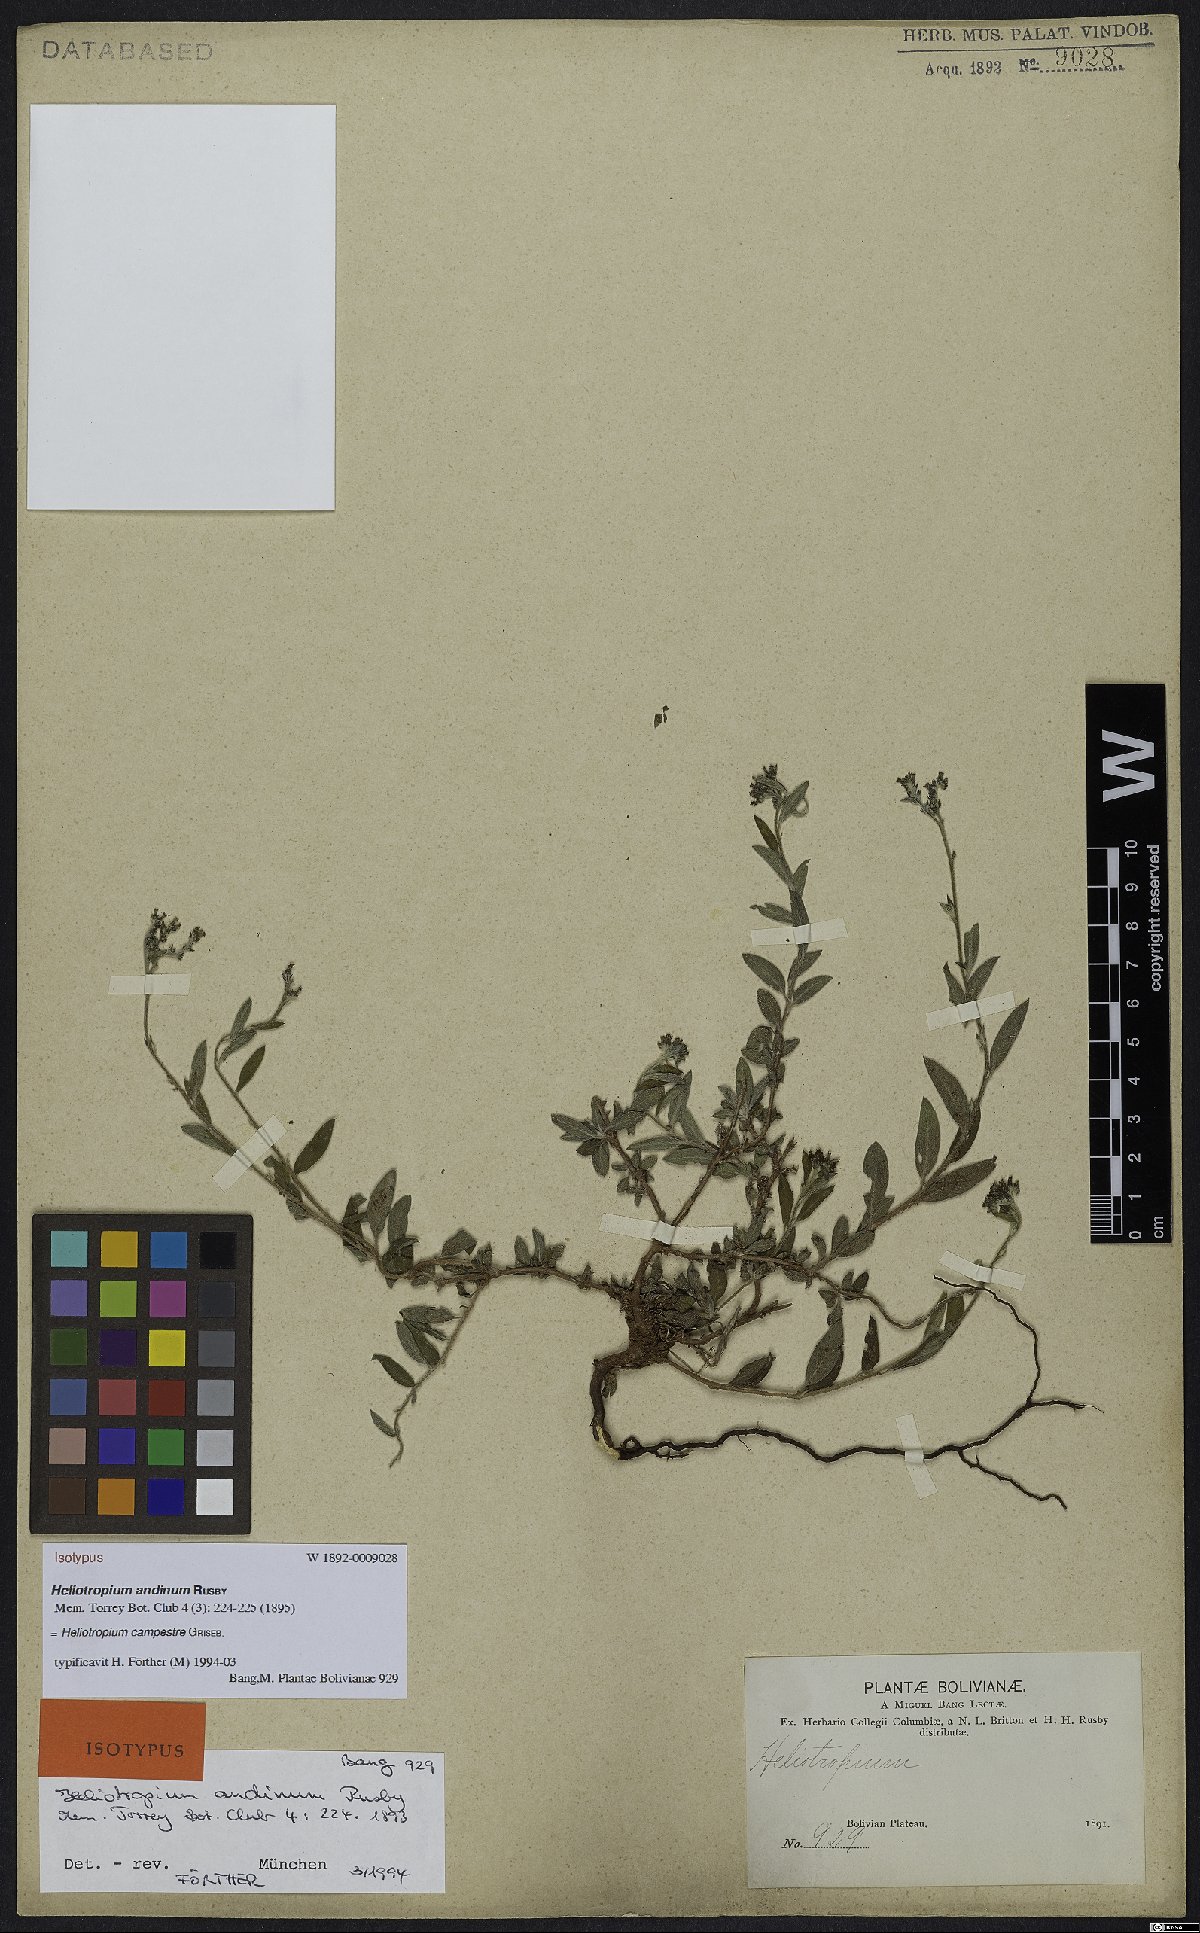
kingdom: Plantae
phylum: Tracheophyta
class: Magnoliopsida
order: Boraginales
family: Heliotropiaceae
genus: Euploca
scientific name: Euploca campestris
